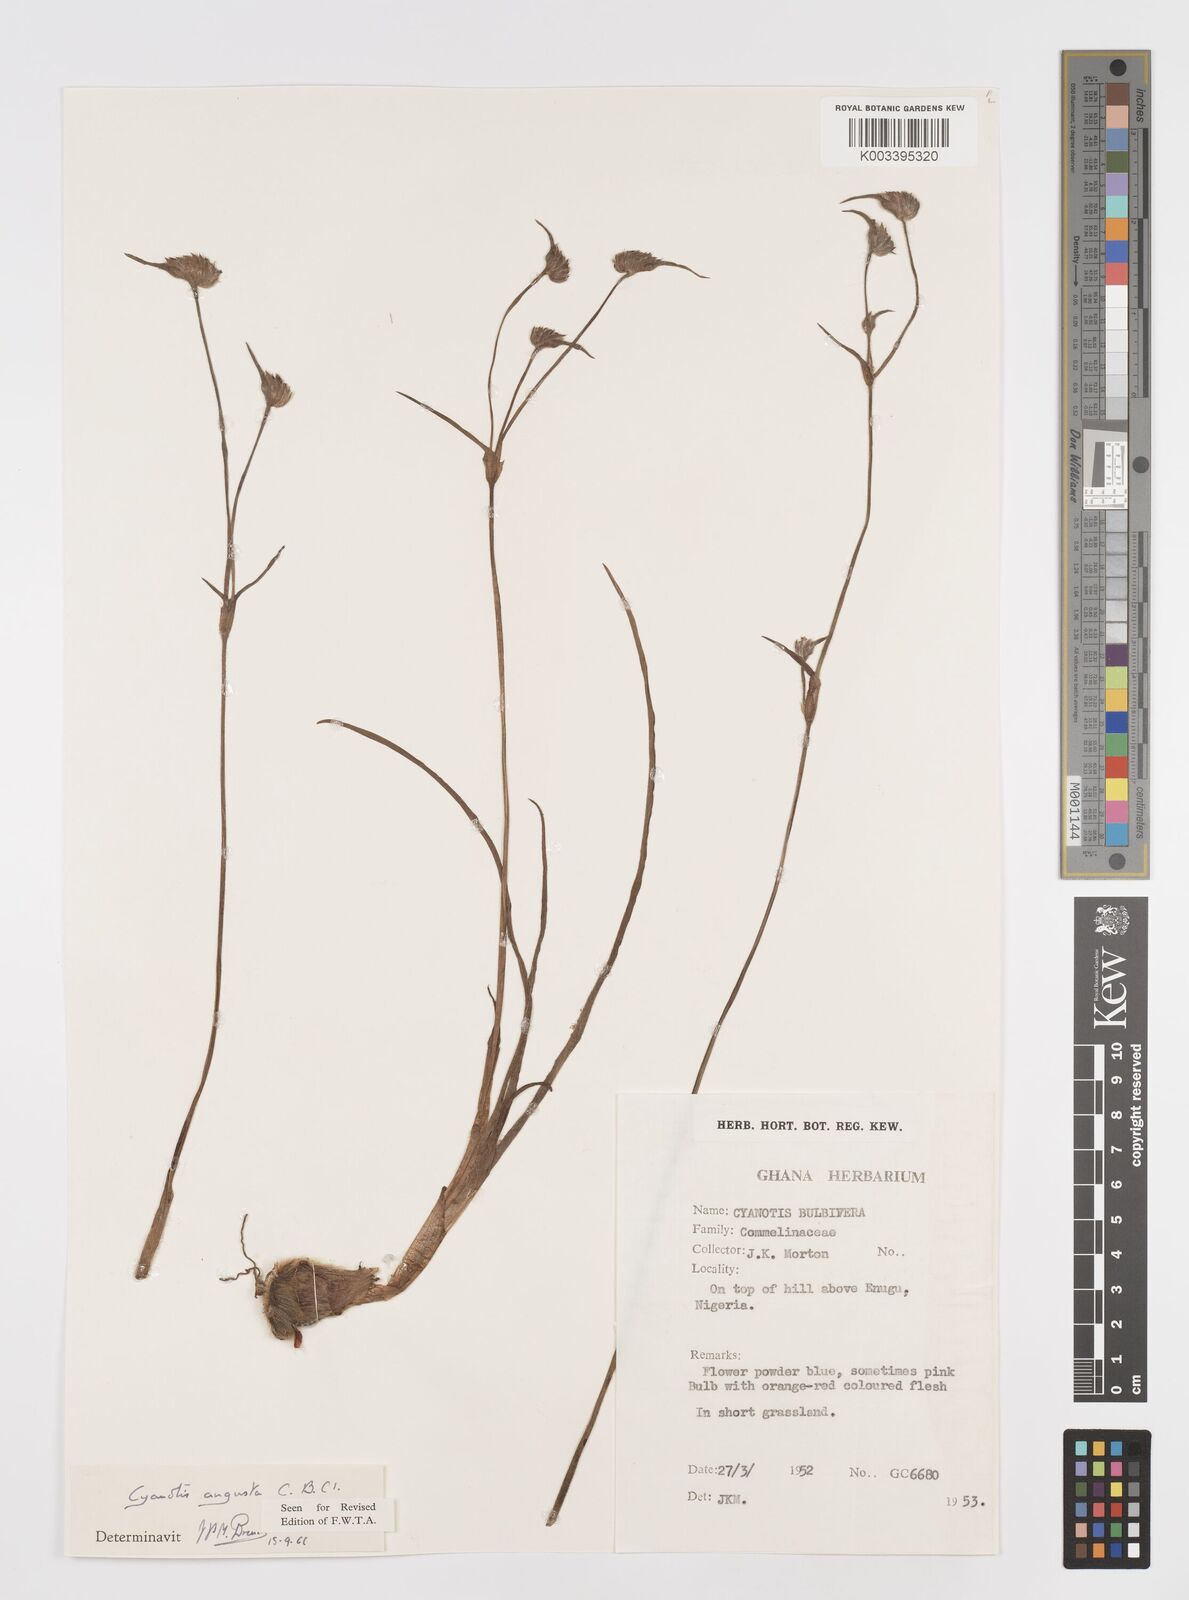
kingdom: Plantae
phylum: Tracheophyta
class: Liliopsida
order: Commelinales
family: Commelinaceae
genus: Cyanotis
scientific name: Cyanotis angusta
